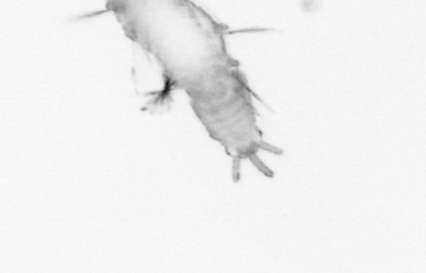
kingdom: Animalia
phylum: Annelida
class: Polychaeta
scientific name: Polychaeta
